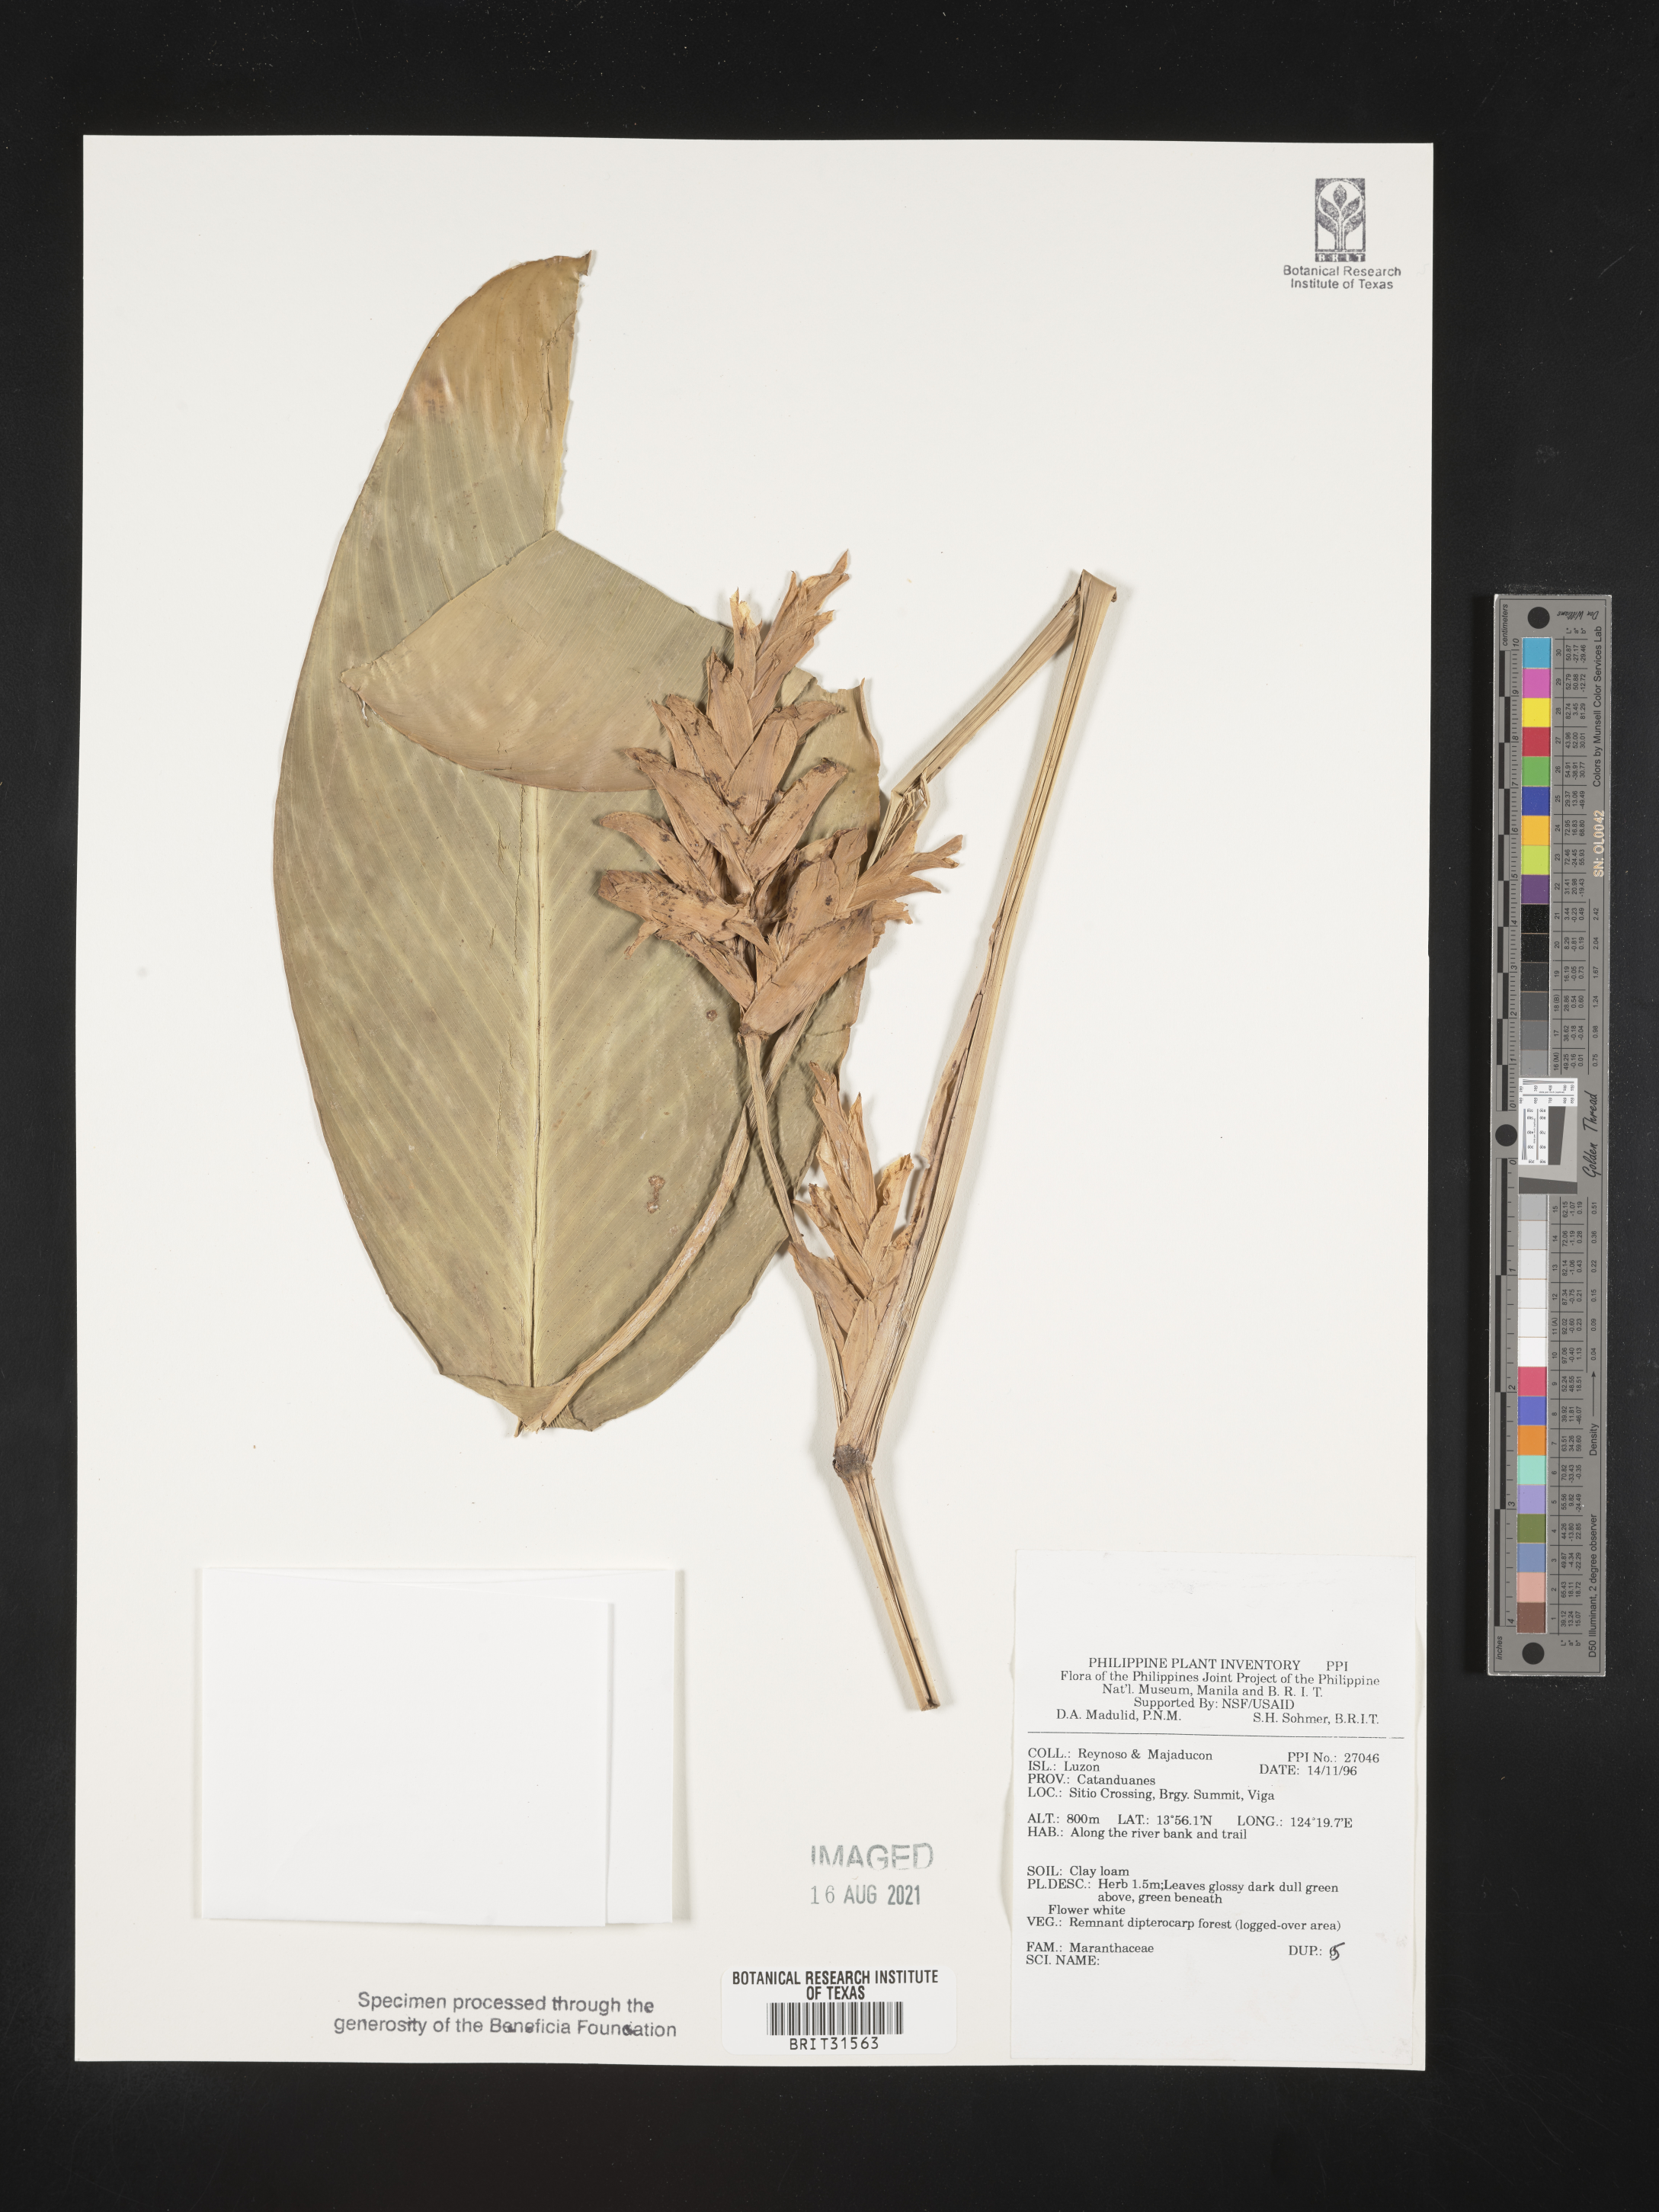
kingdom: Plantae
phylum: Tracheophyta
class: Liliopsida
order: Zingiberales
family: Marantaceae
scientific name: Marantaceae
